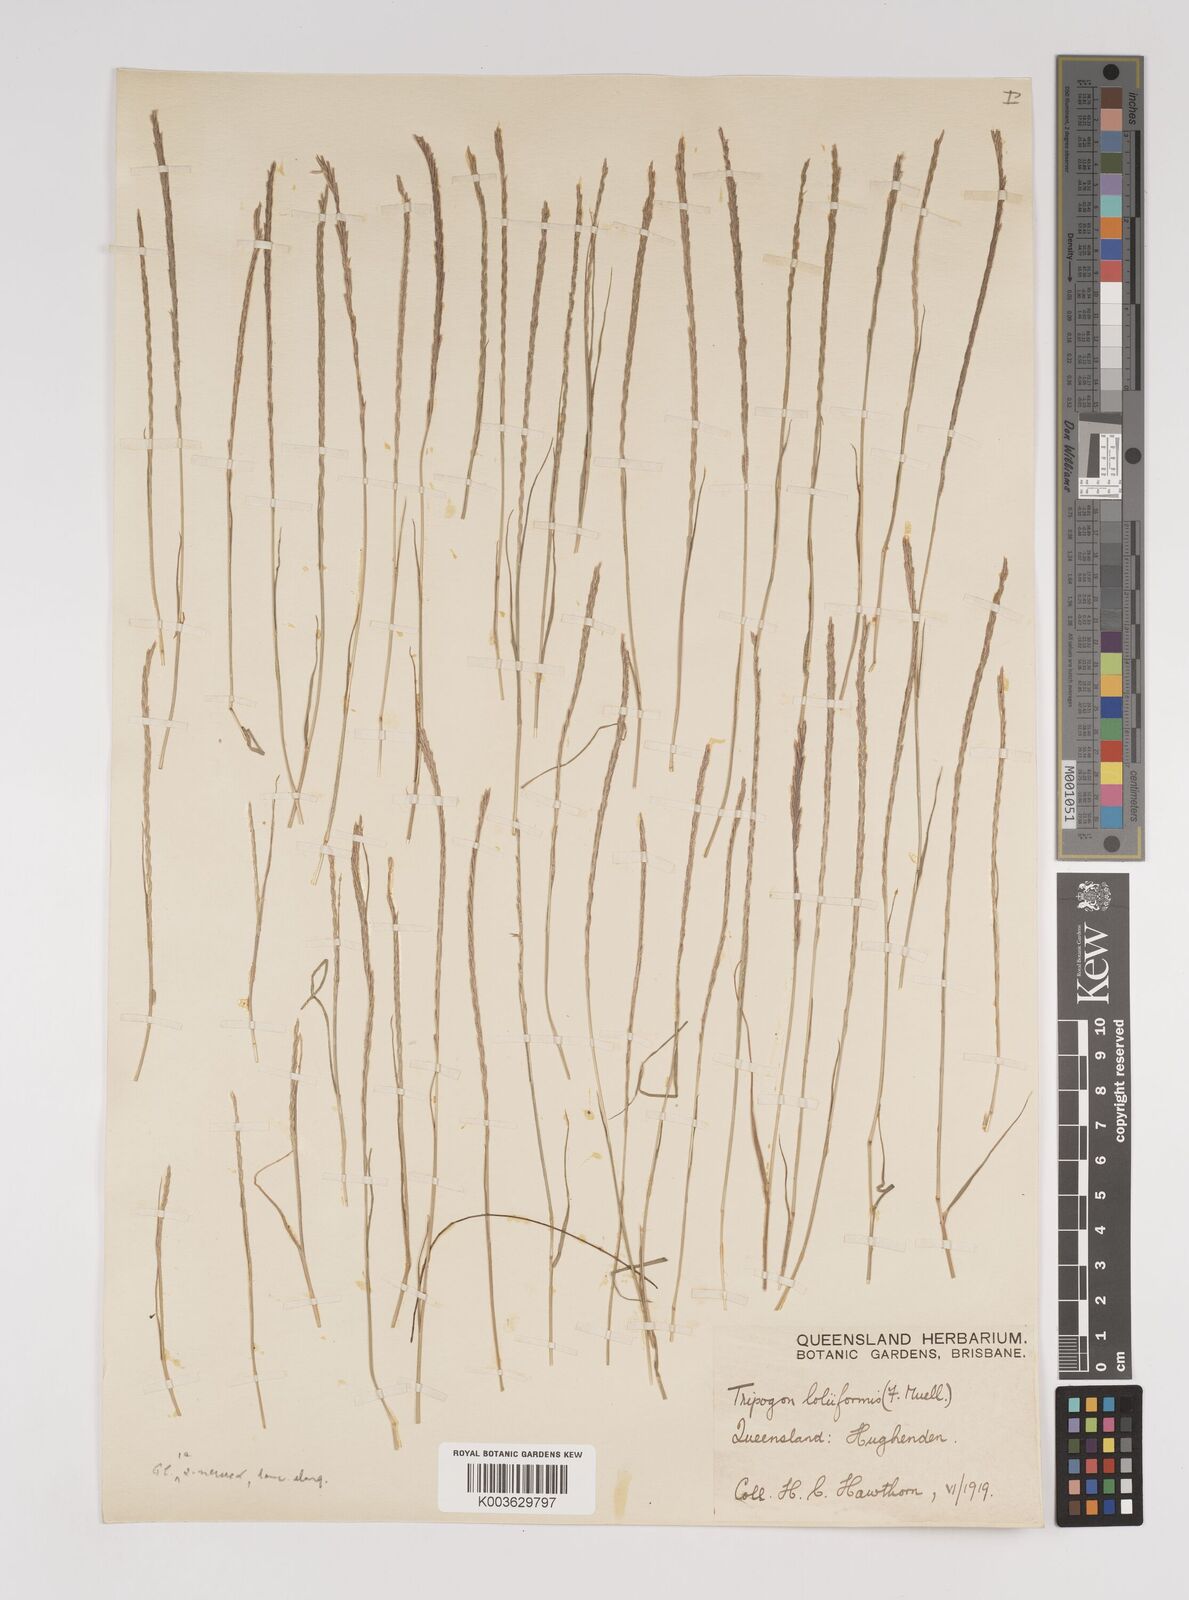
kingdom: Plantae
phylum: Tracheophyta
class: Liliopsida
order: Poales
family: Poaceae
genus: Tripogonella
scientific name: Tripogonella loliiformis
